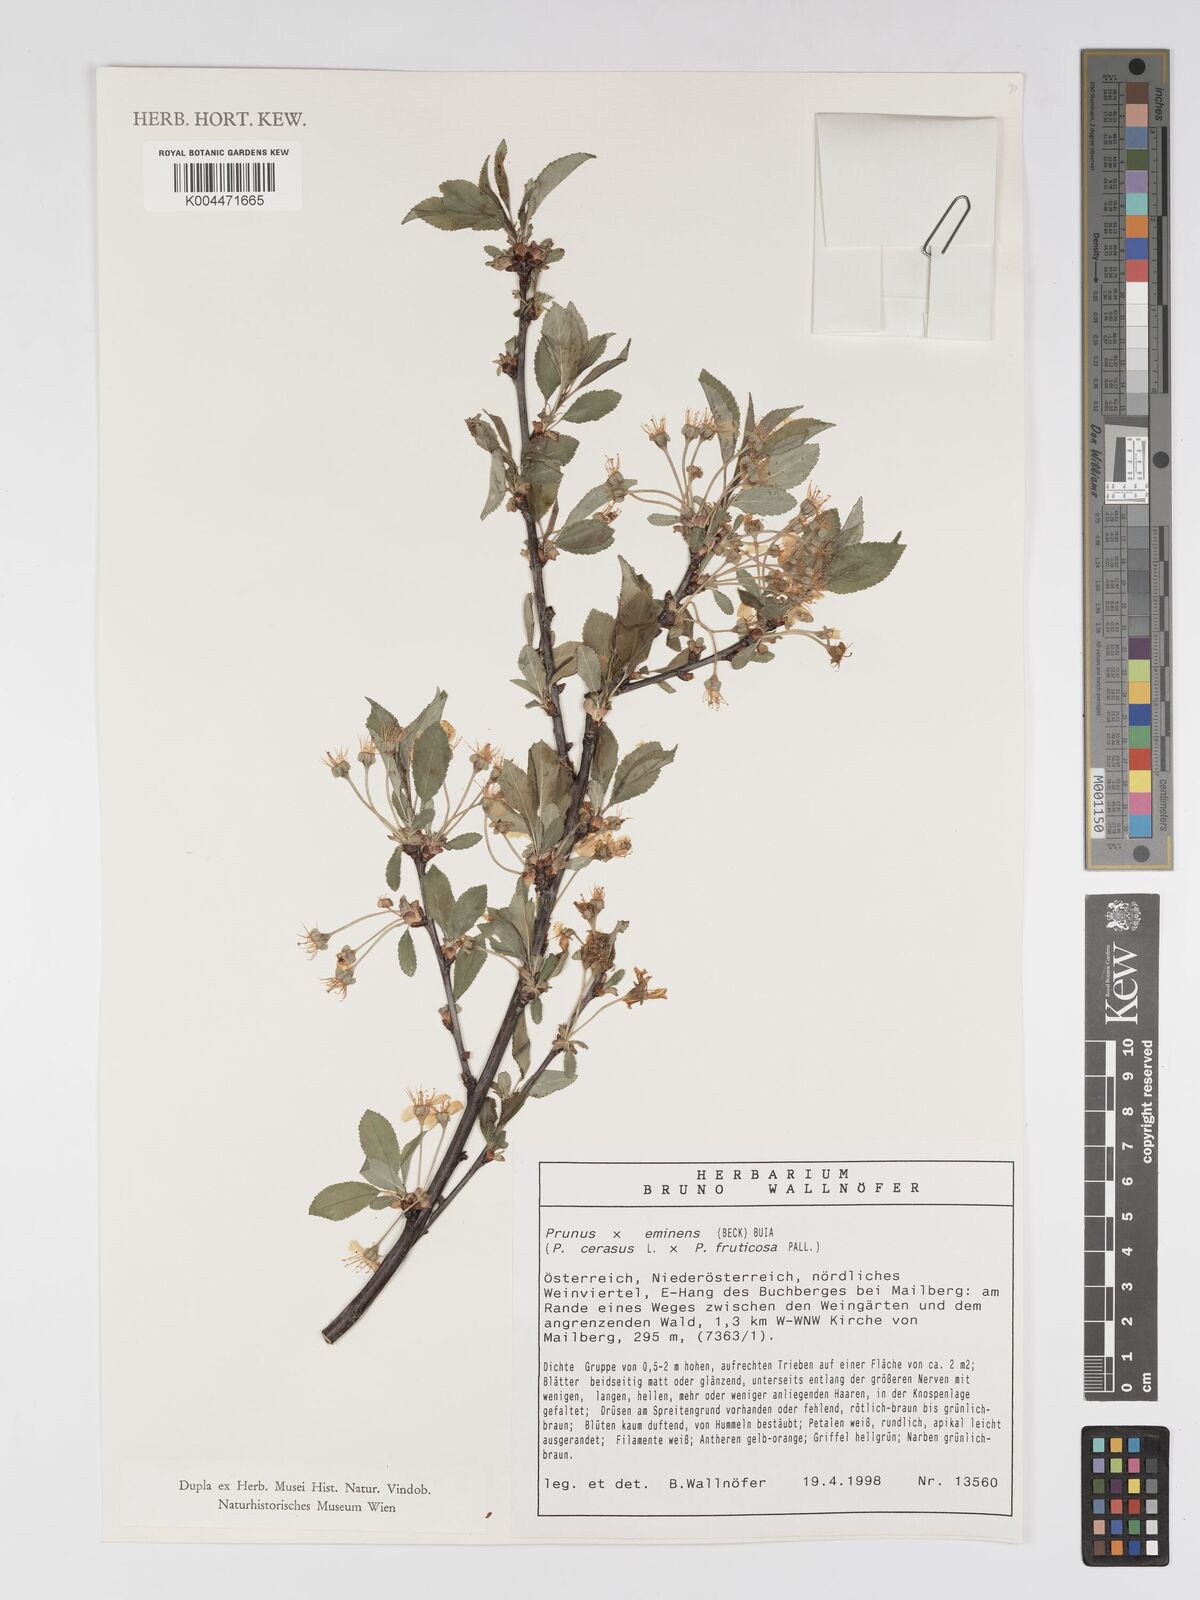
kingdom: Plantae
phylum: Tracheophyta
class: Magnoliopsida
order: Rosales
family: Rosaceae
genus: Prunus
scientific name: Prunus eminens
